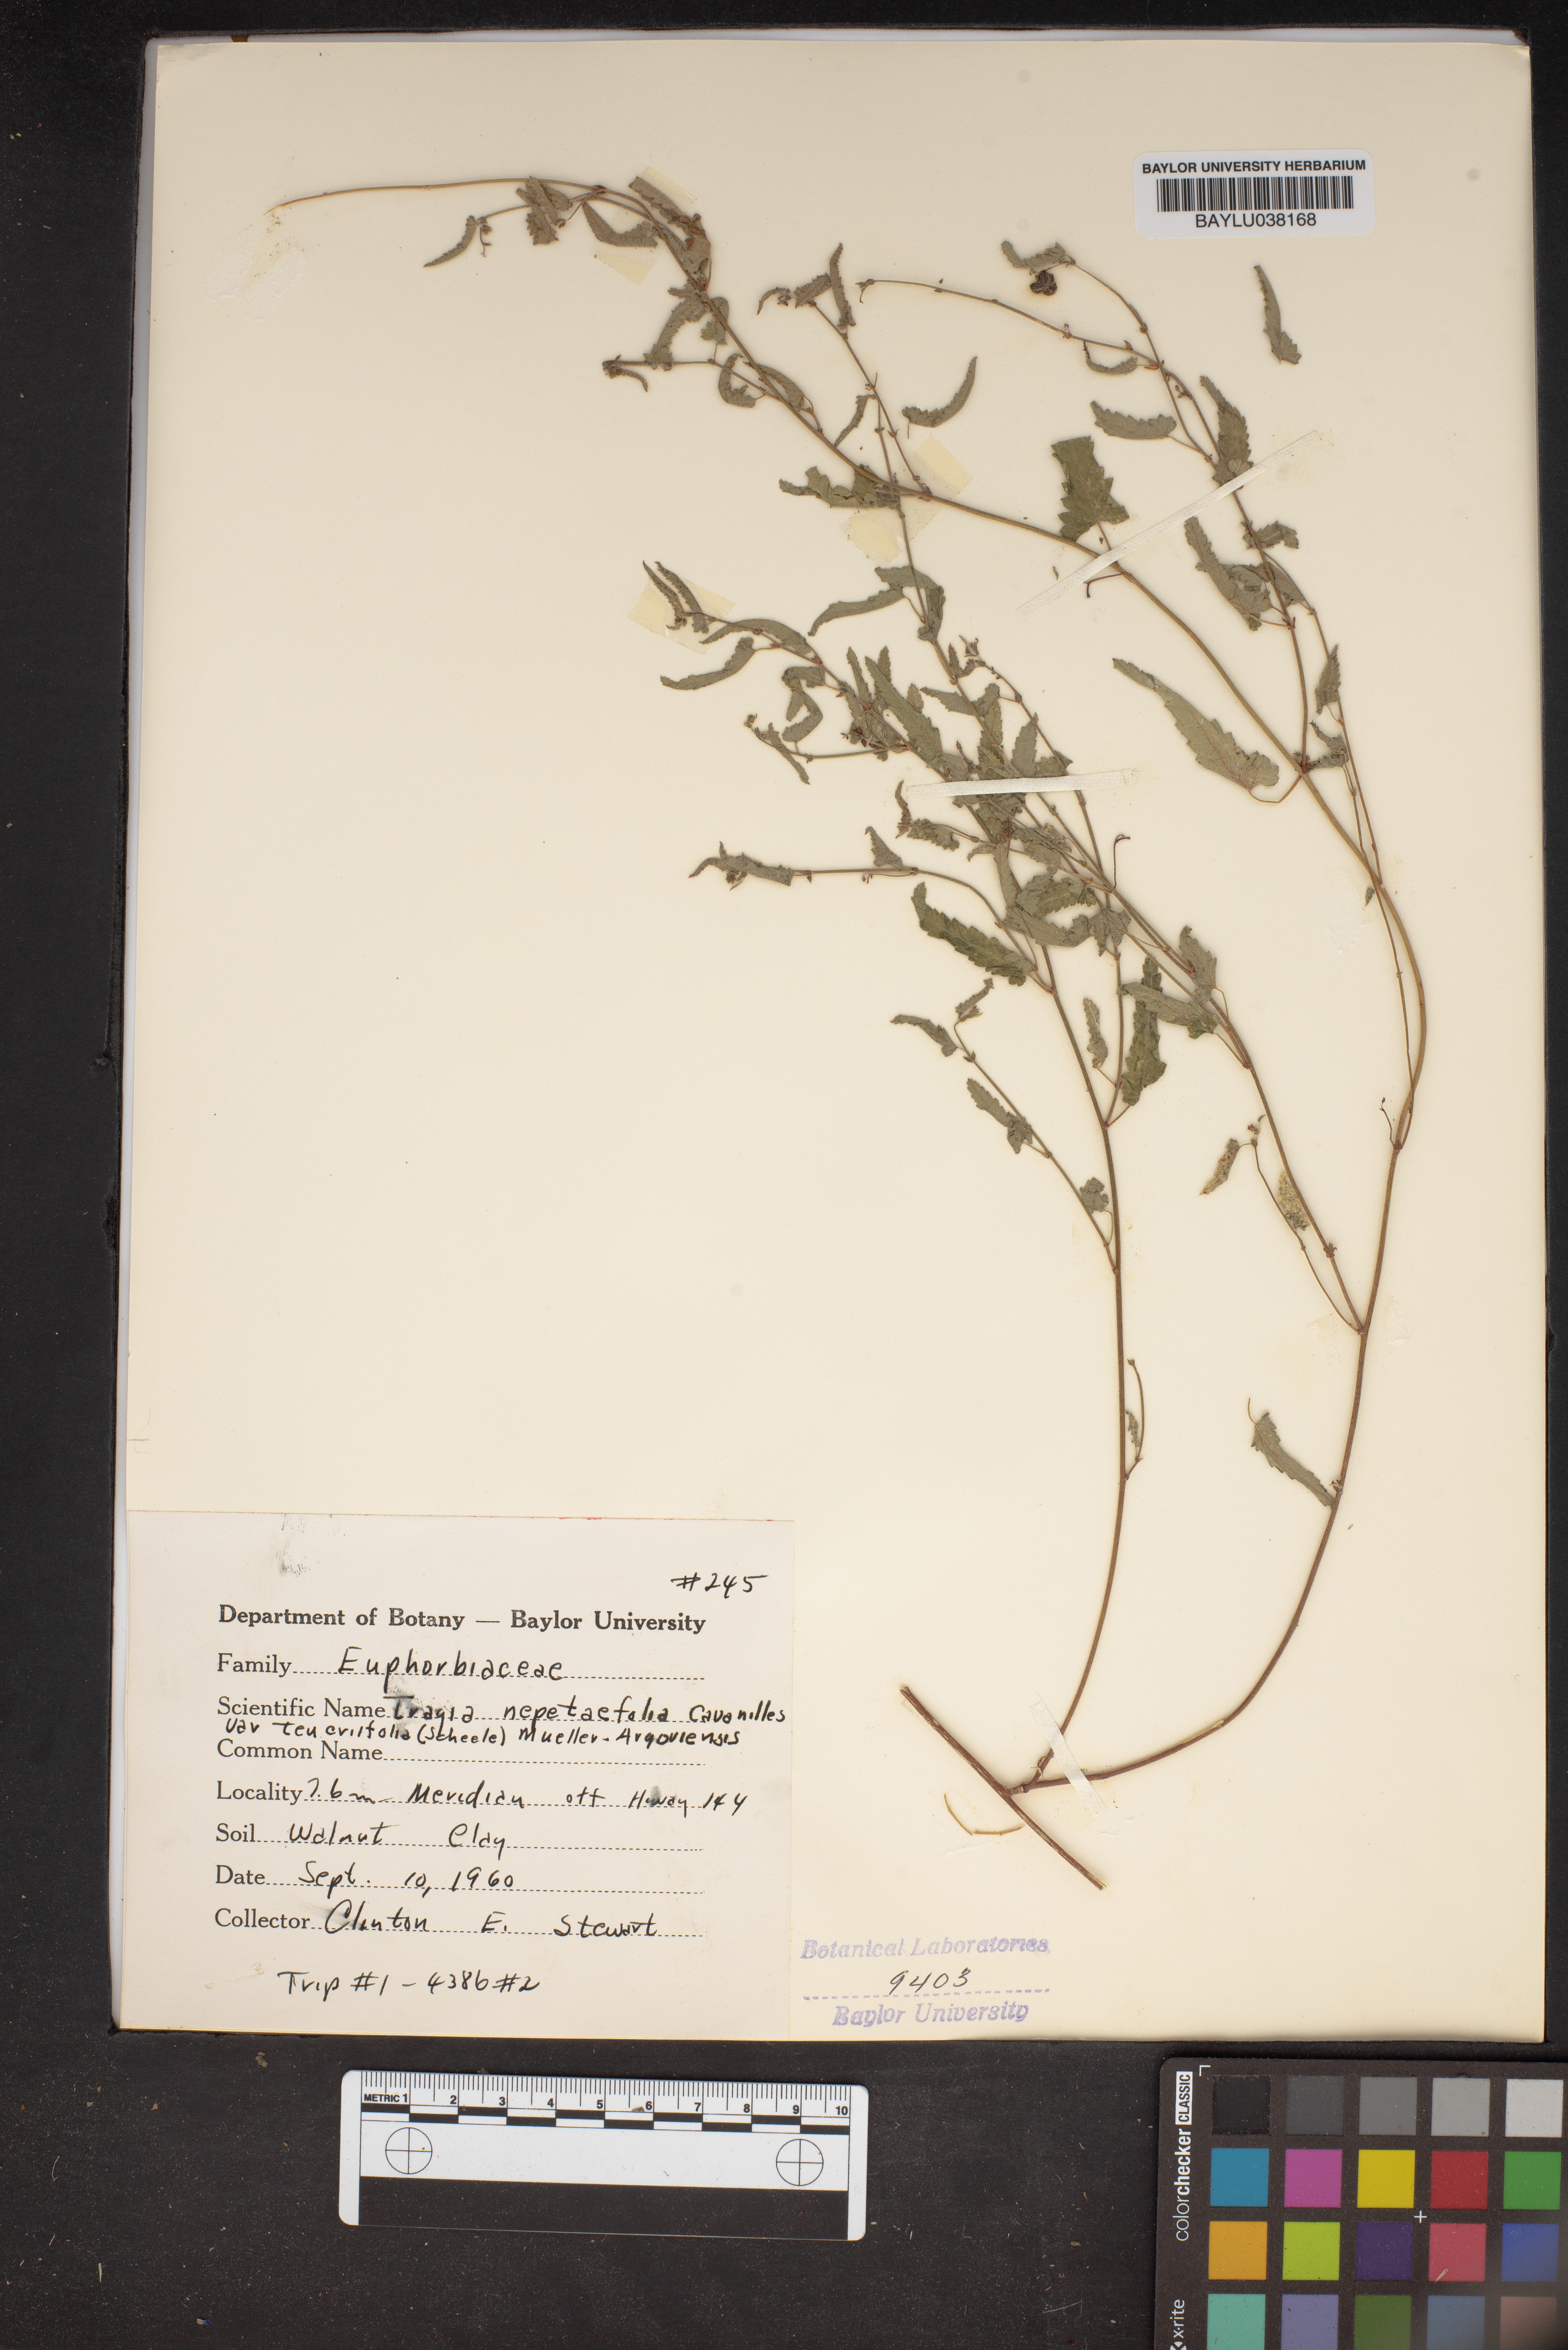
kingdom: Plantae
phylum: Tracheophyta
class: Magnoliopsida
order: Malpighiales
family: Euphorbiaceae
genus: Tragia
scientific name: Tragia bahiensis
